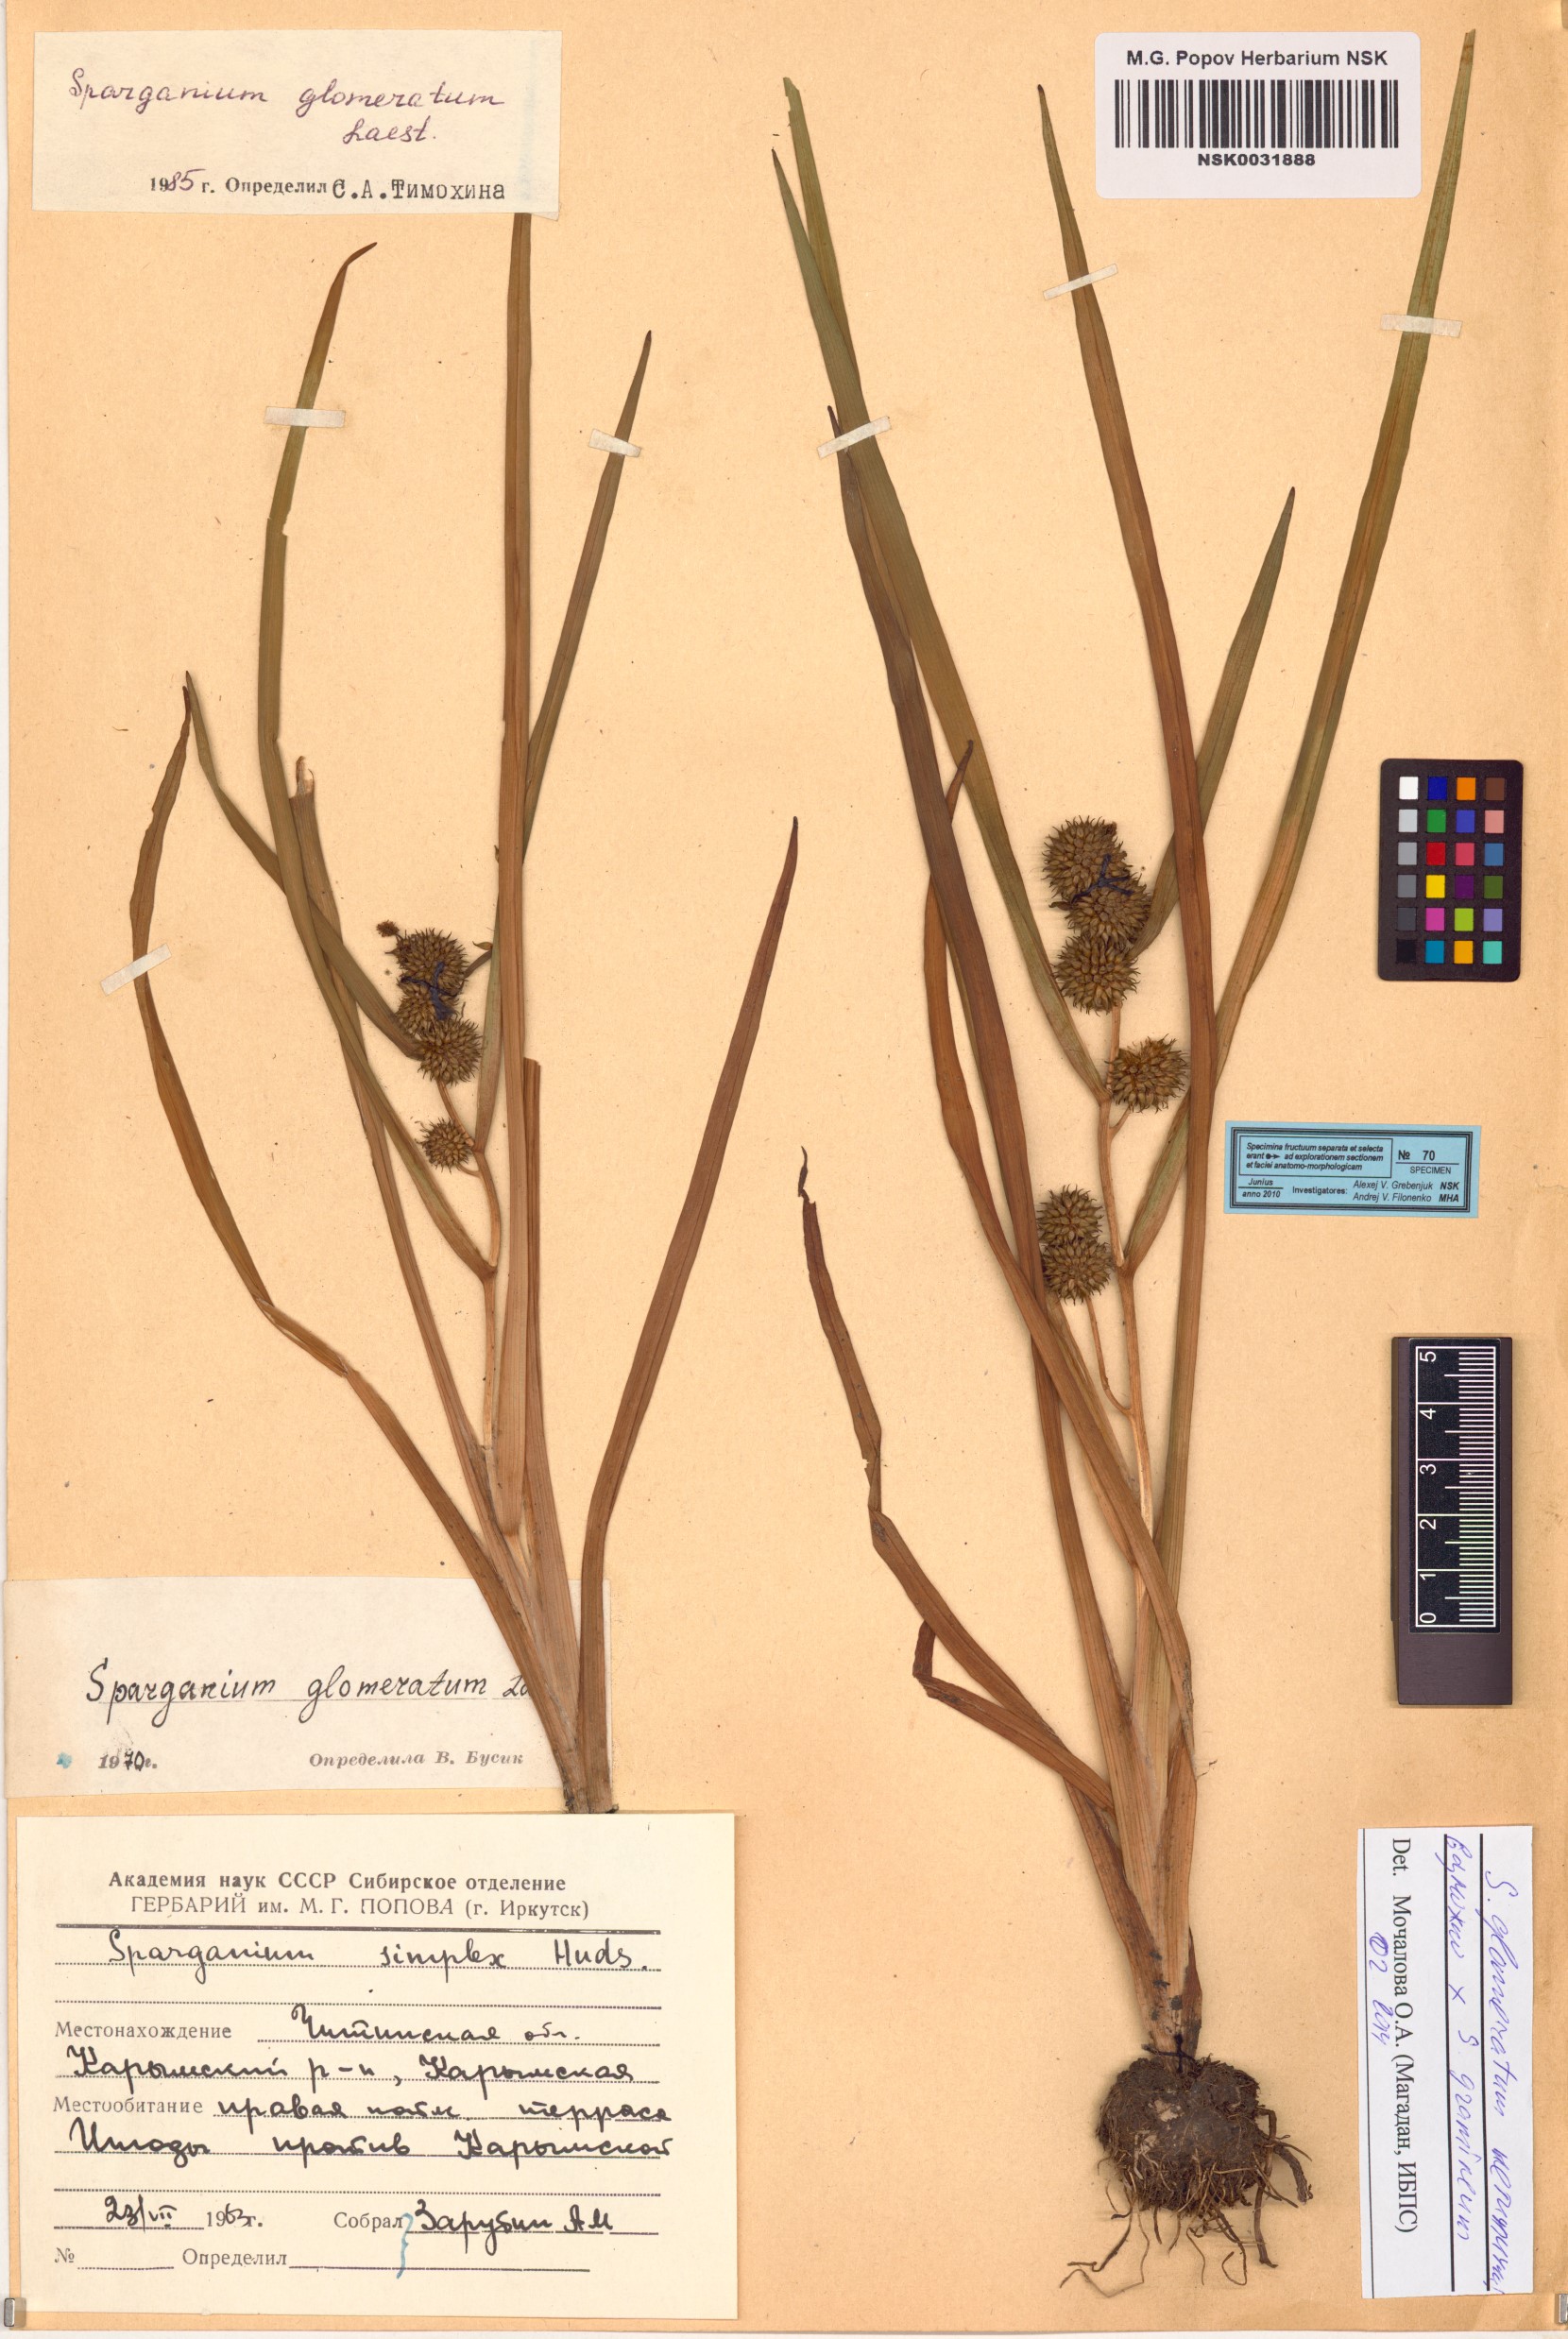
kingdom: Plantae
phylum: Tracheophyta
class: Liliopsida
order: Poales
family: Typhaceae
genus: Sparganium
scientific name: Sparganium glomeratum
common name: Clustered burreed
